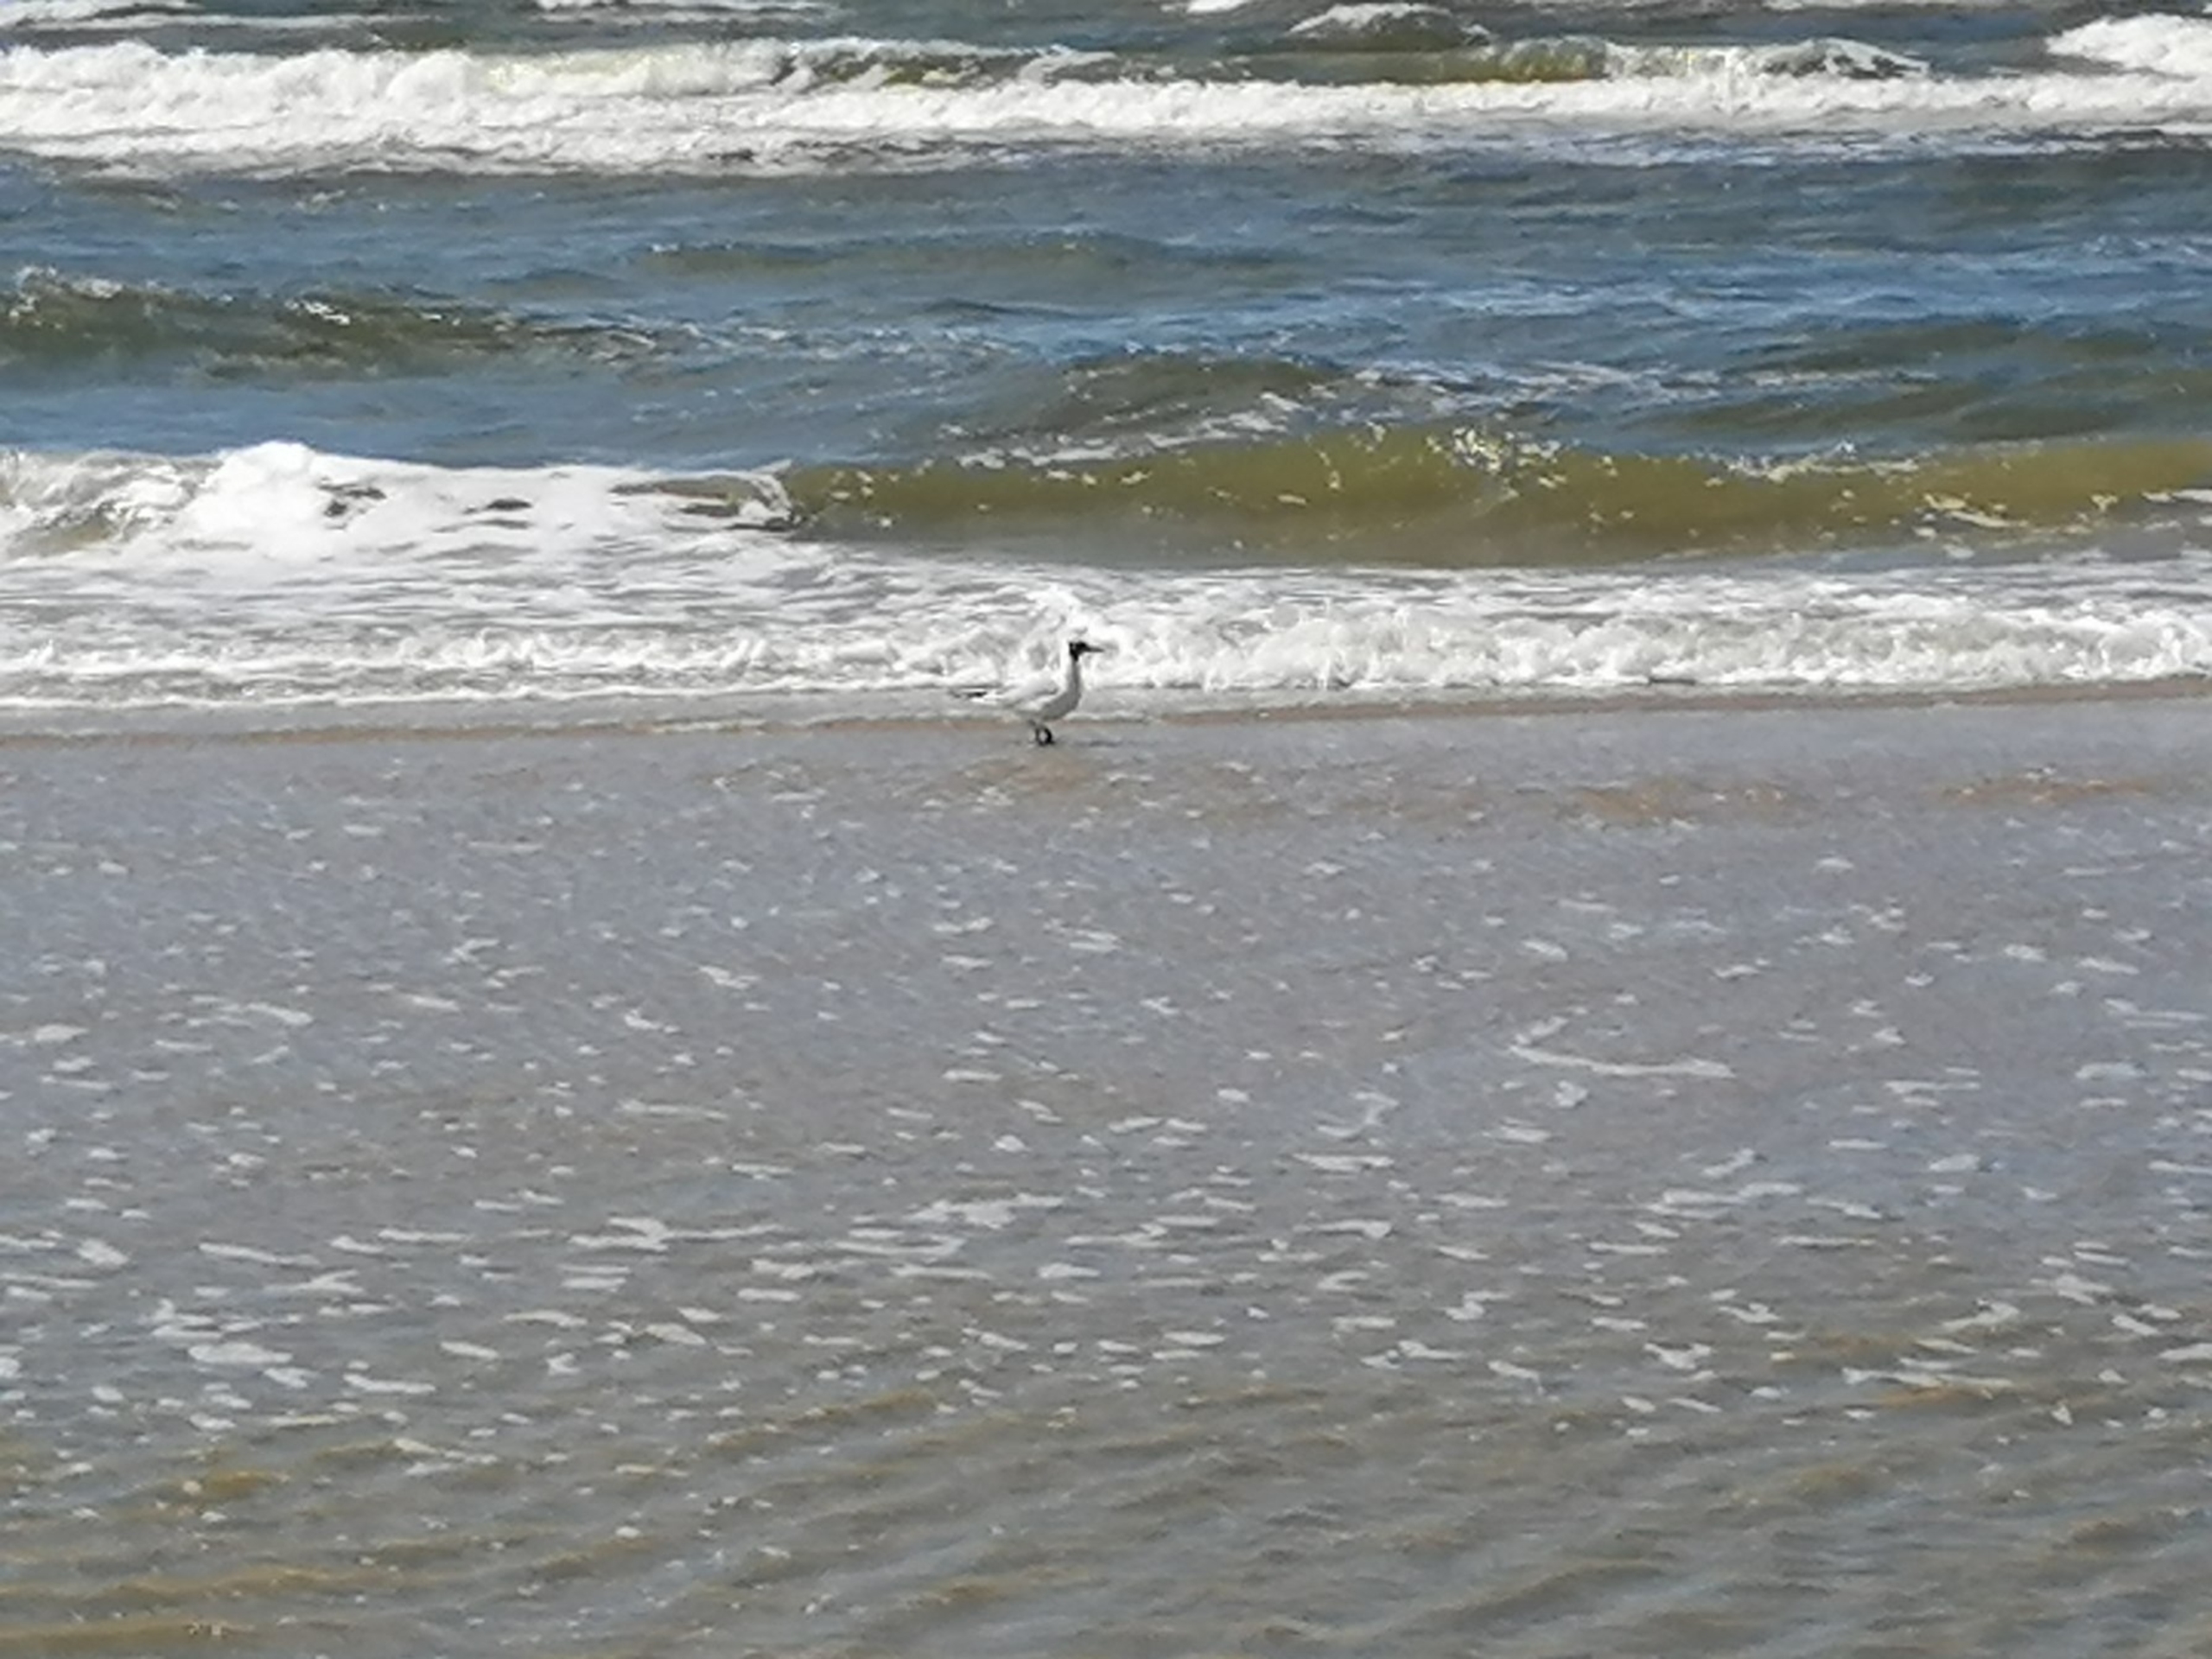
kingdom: Animalia
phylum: Chordata
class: Aves
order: Charadriiformes
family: Laridae
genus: Chroicocephalus
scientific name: Chroicocephalus ridibundus
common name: Hættemåge
